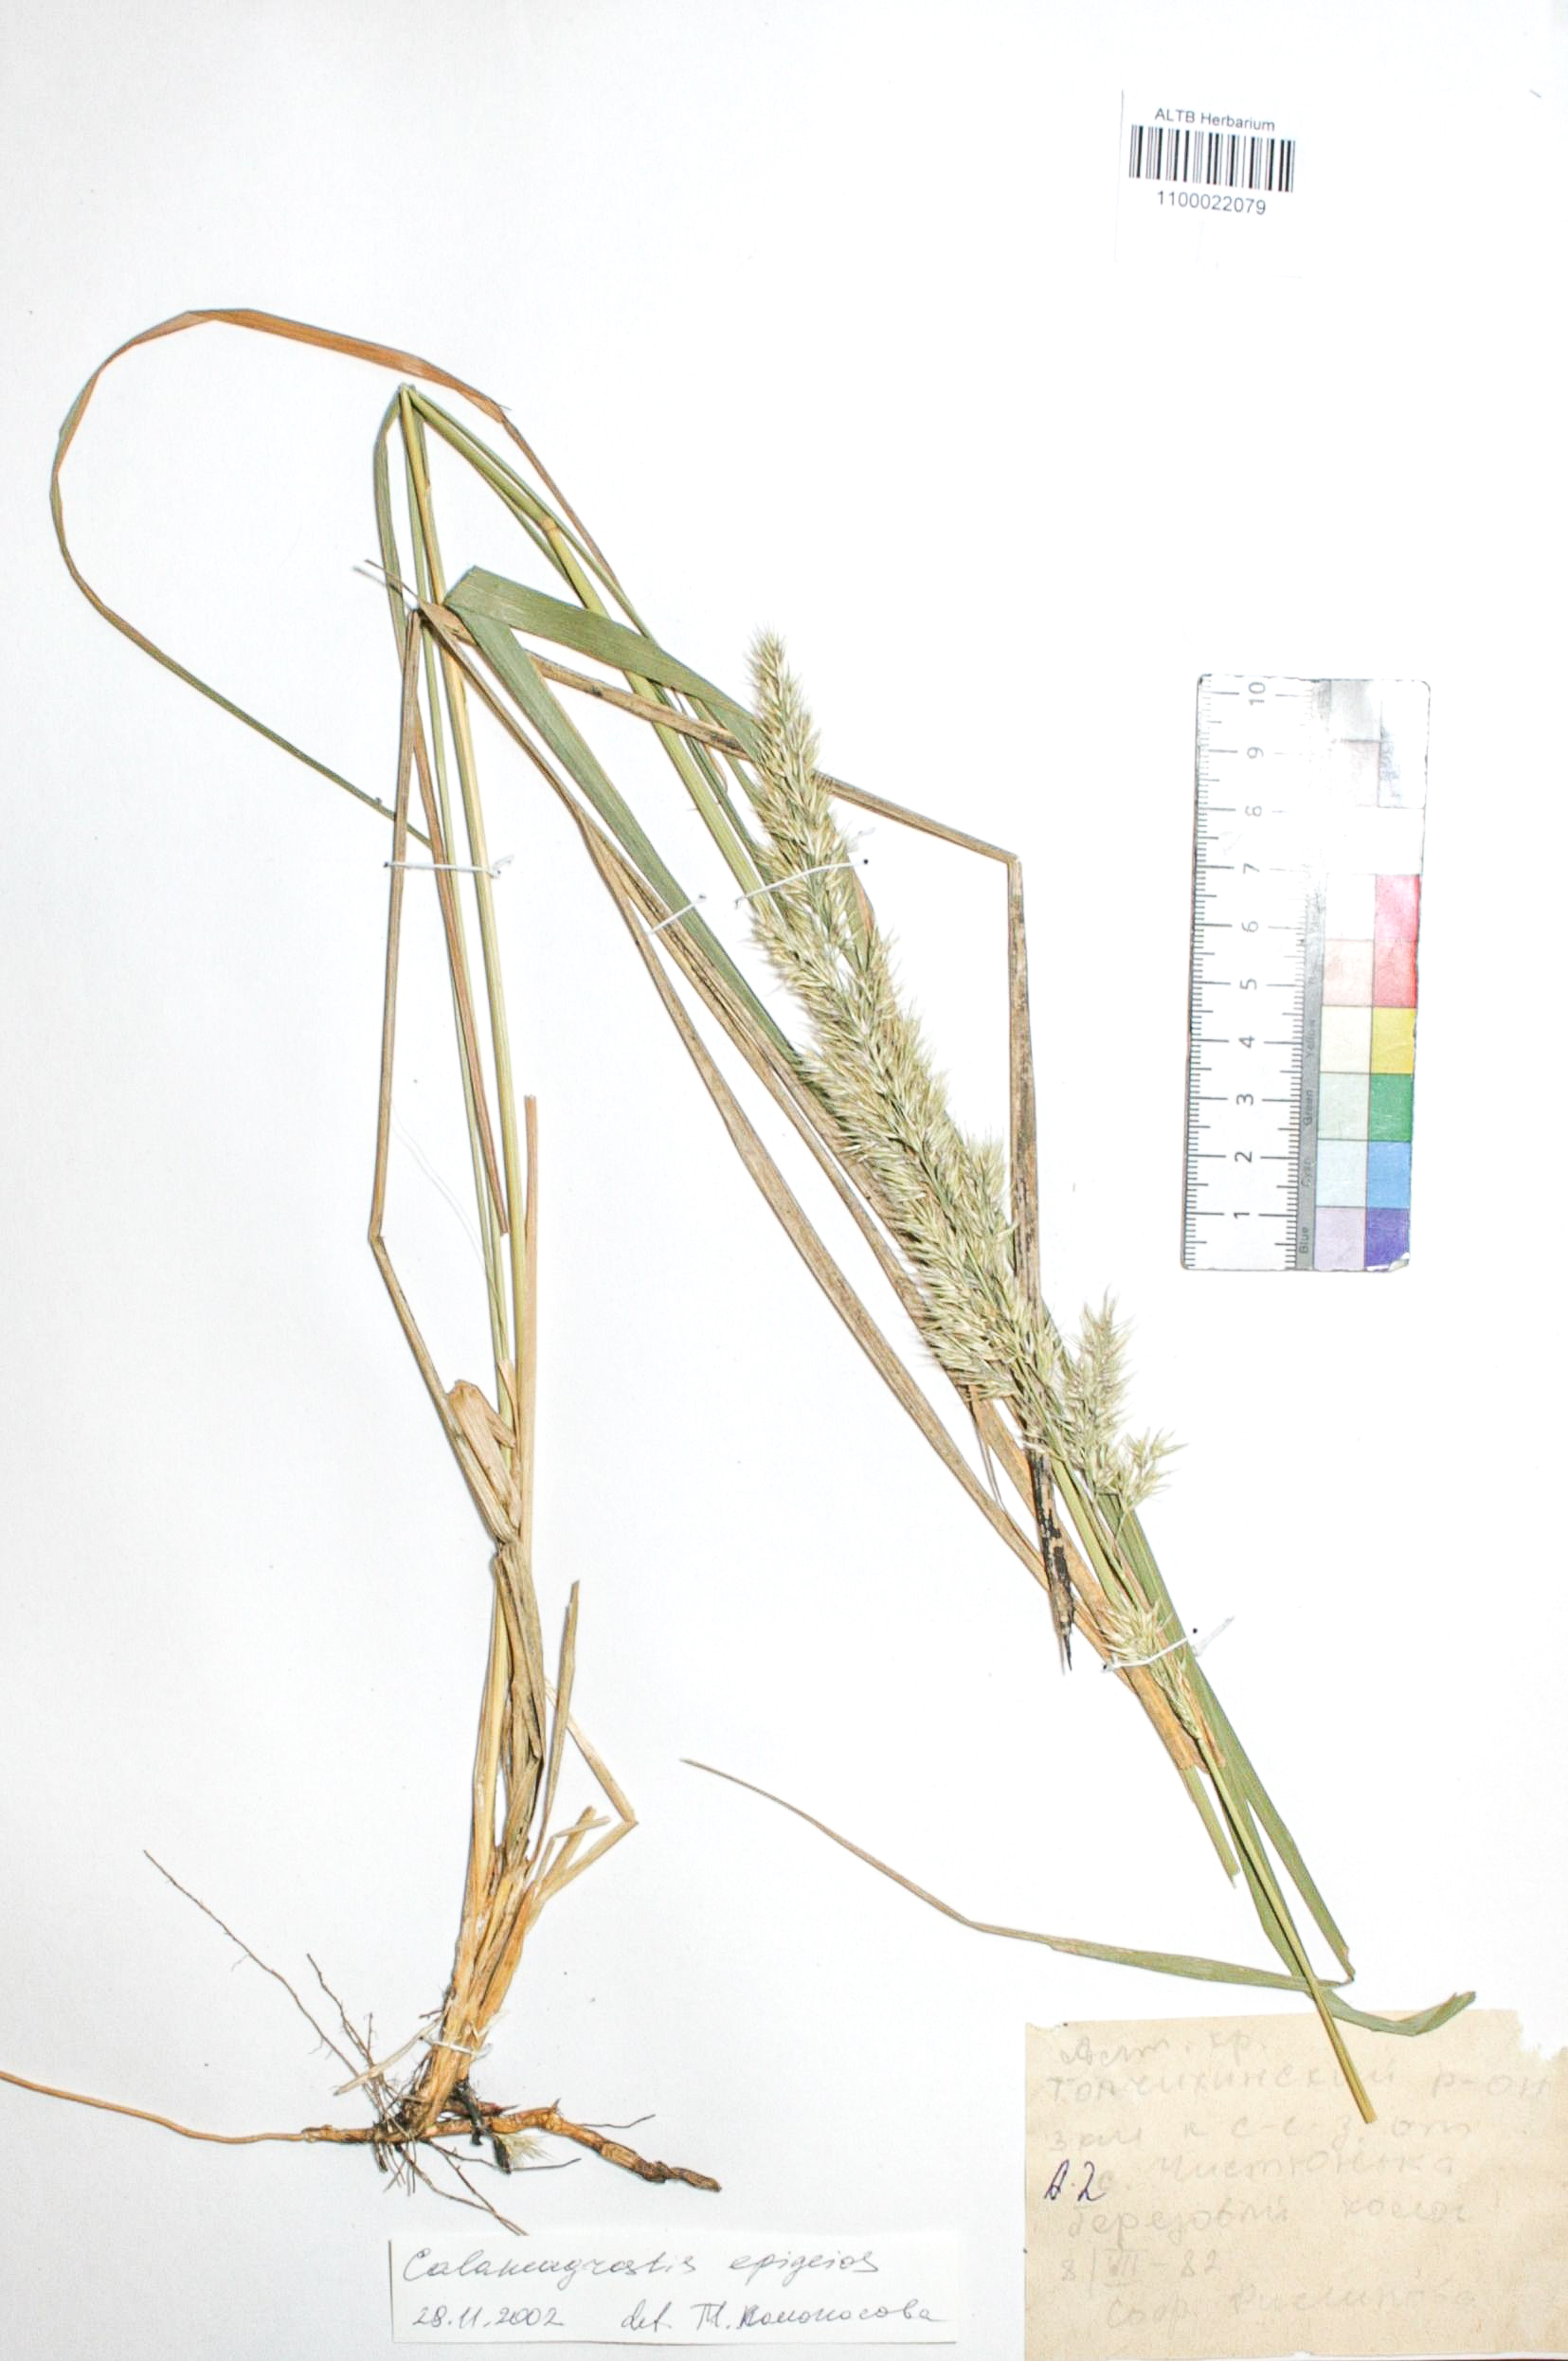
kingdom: Plantae
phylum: Tracheophyta
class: Liliopsida
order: Poales
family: Poaceae
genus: Calamagrostis
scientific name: Calamagrostis epigejos
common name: Wood small-reed
